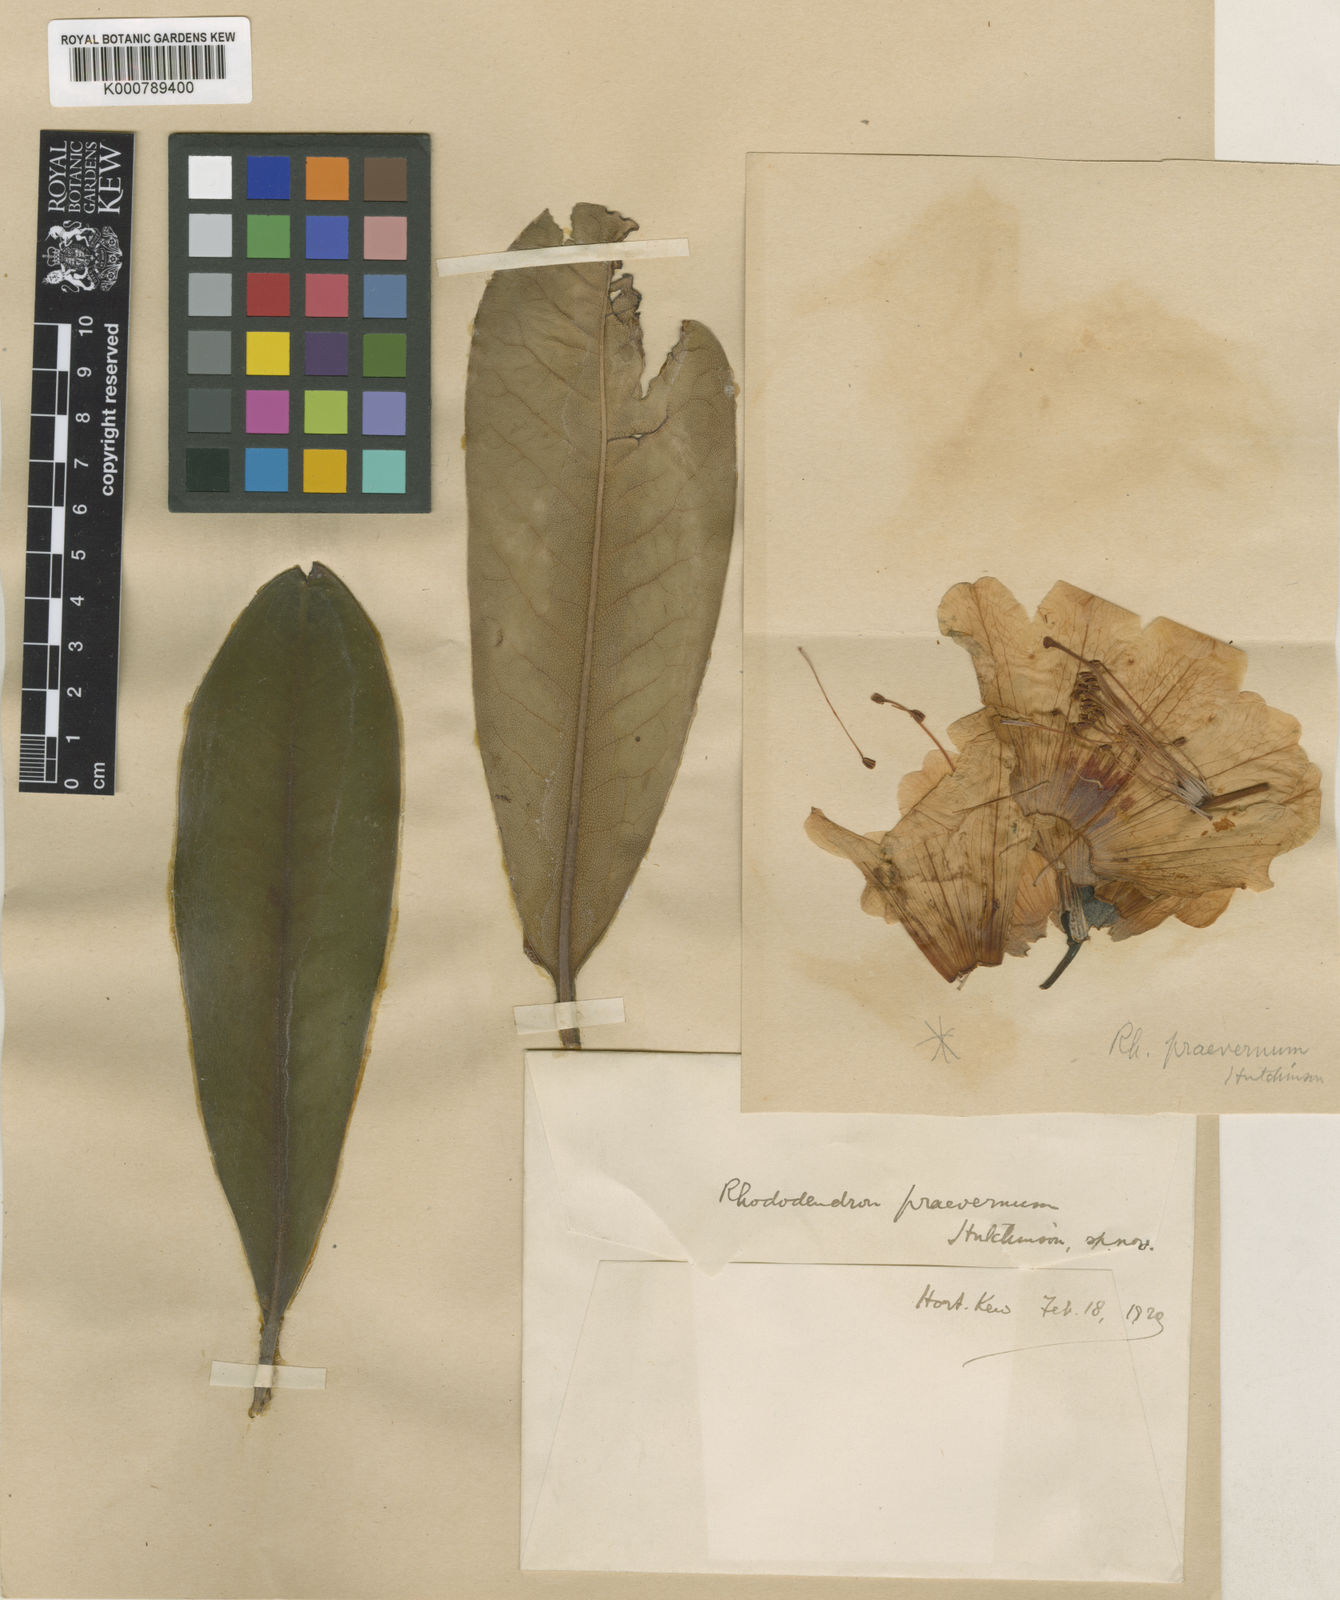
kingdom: Plantae
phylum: Tracheophyta
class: Magnoliopsida
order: Ericales
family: Ericaceae
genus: Rhododendron
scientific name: Rhododendron
